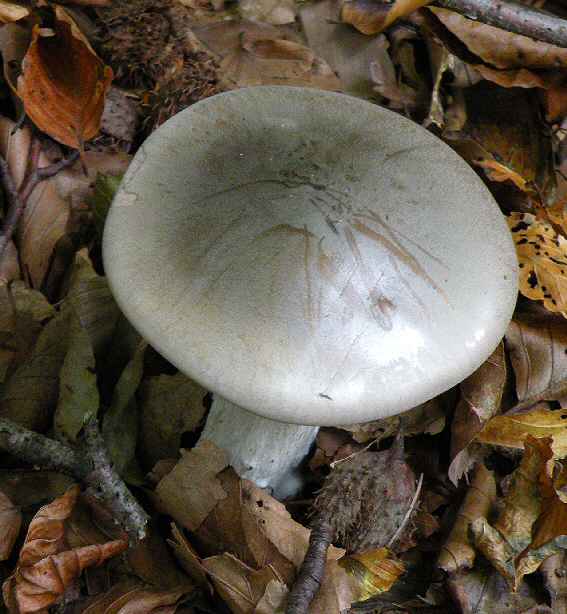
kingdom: Fungi
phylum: Basidiomycota
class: Agaricomycetes
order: Agaricales
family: Tricholomataceae
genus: Clitocybe
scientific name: Clitocybe nebularis
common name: tåge-tragthat
